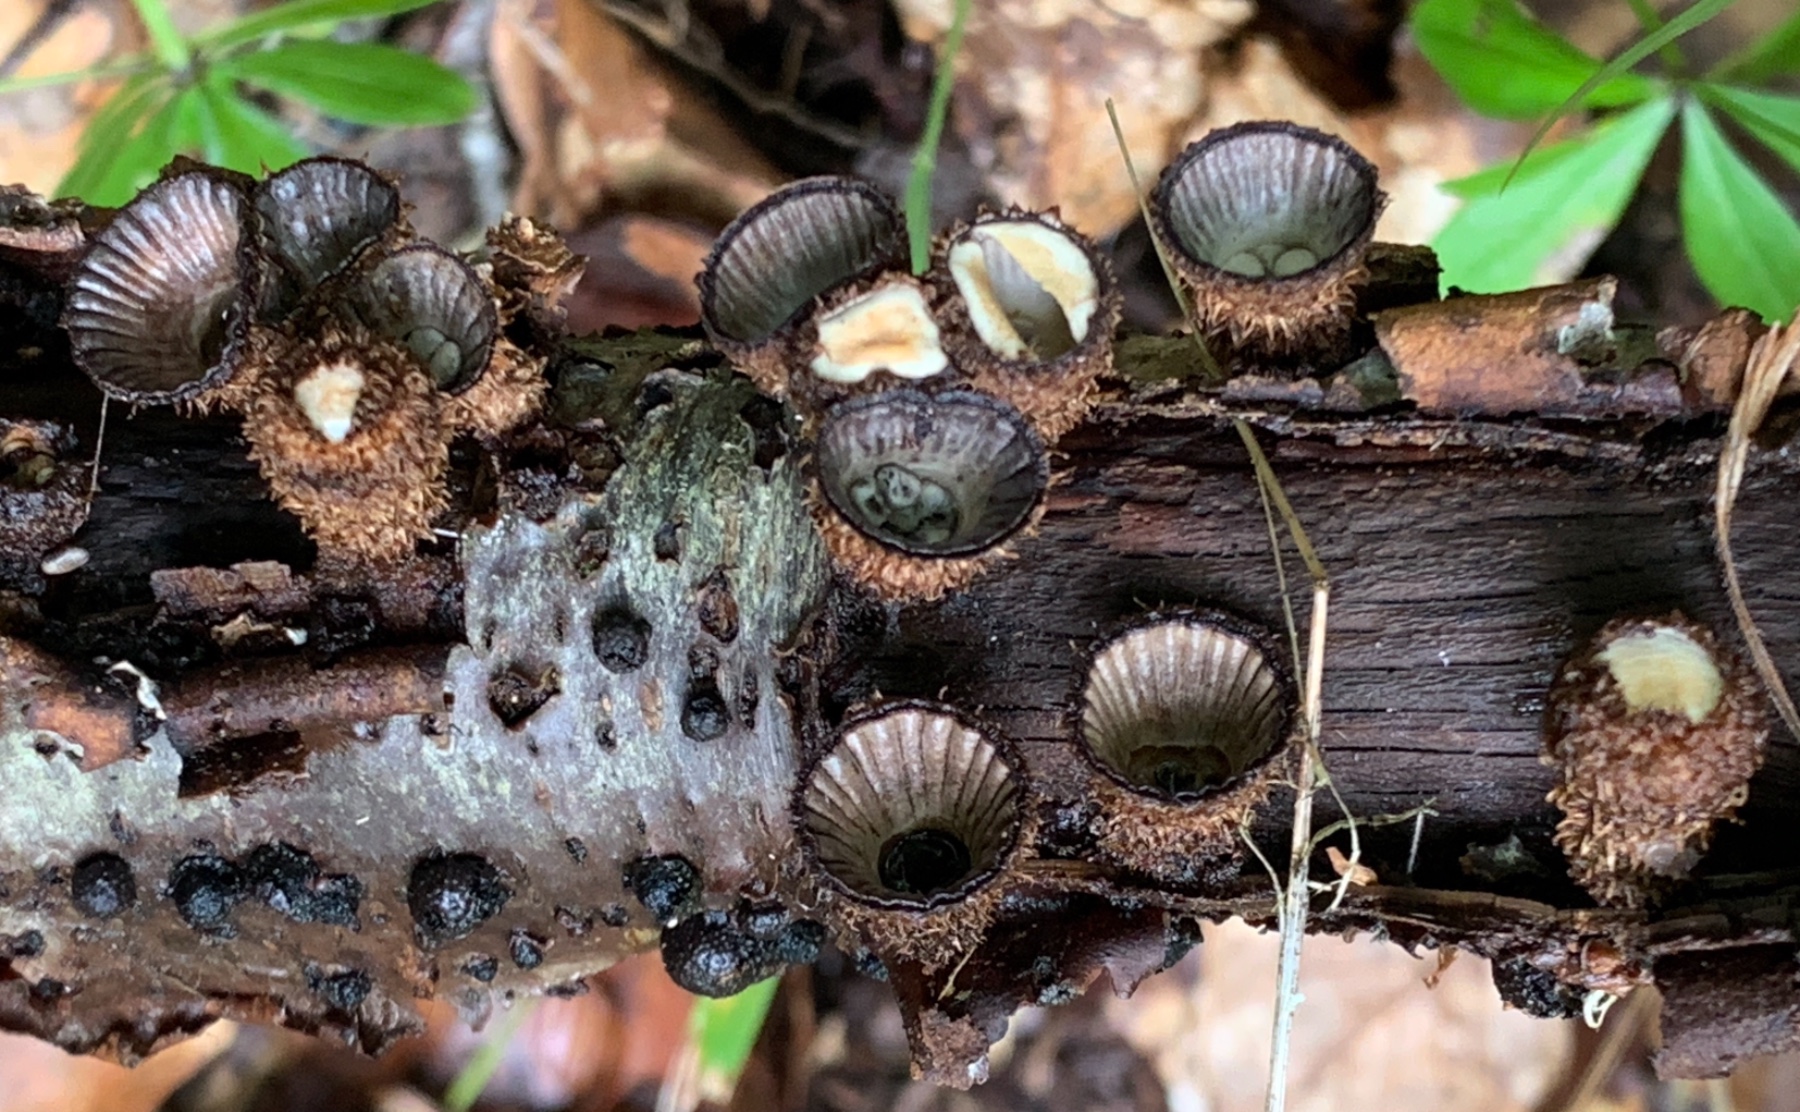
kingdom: Fungi
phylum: Basidiomycota
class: Agaricomycetes
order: Agaricales
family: Agaricaceae
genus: Cyathus
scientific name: Cyathus striatus
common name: stribet redesvamp
